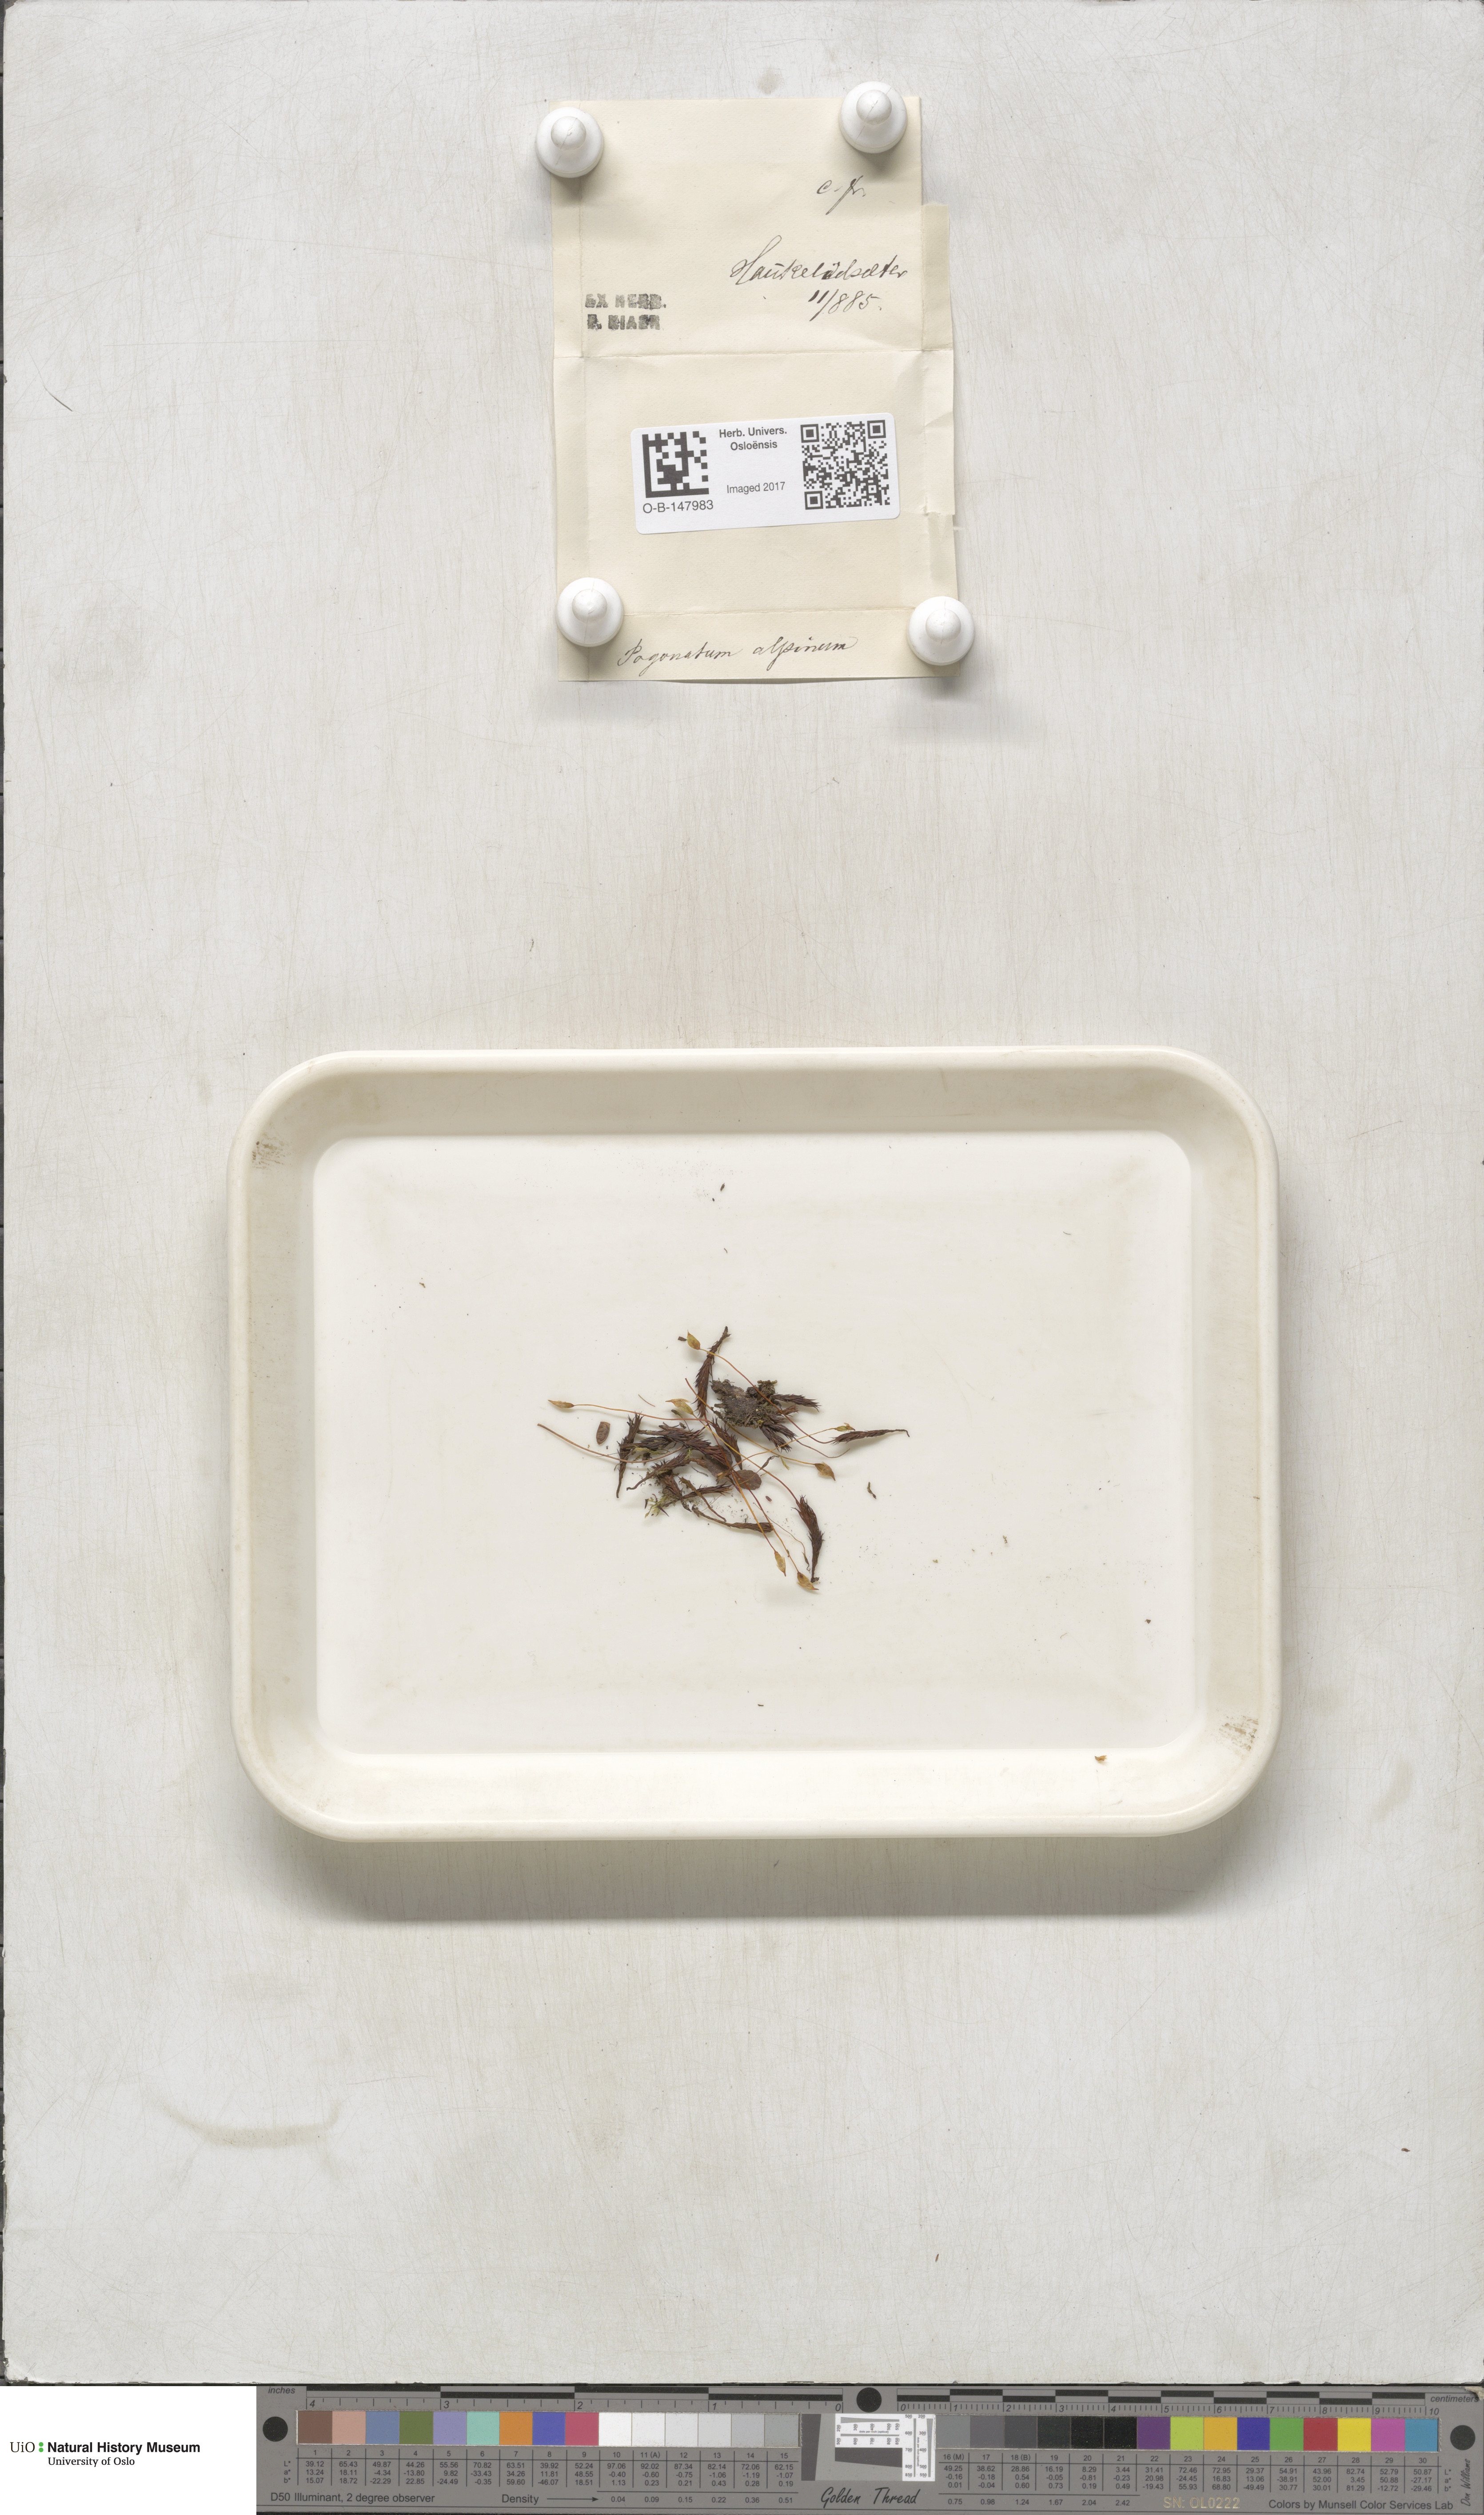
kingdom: Plantae
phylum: Bryophyta
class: Polytrichopsida
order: Polytrichales
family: Polytrichaceae
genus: Polytrichastrum
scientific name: Polytrichastrum alpinum
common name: Alpine haircap
